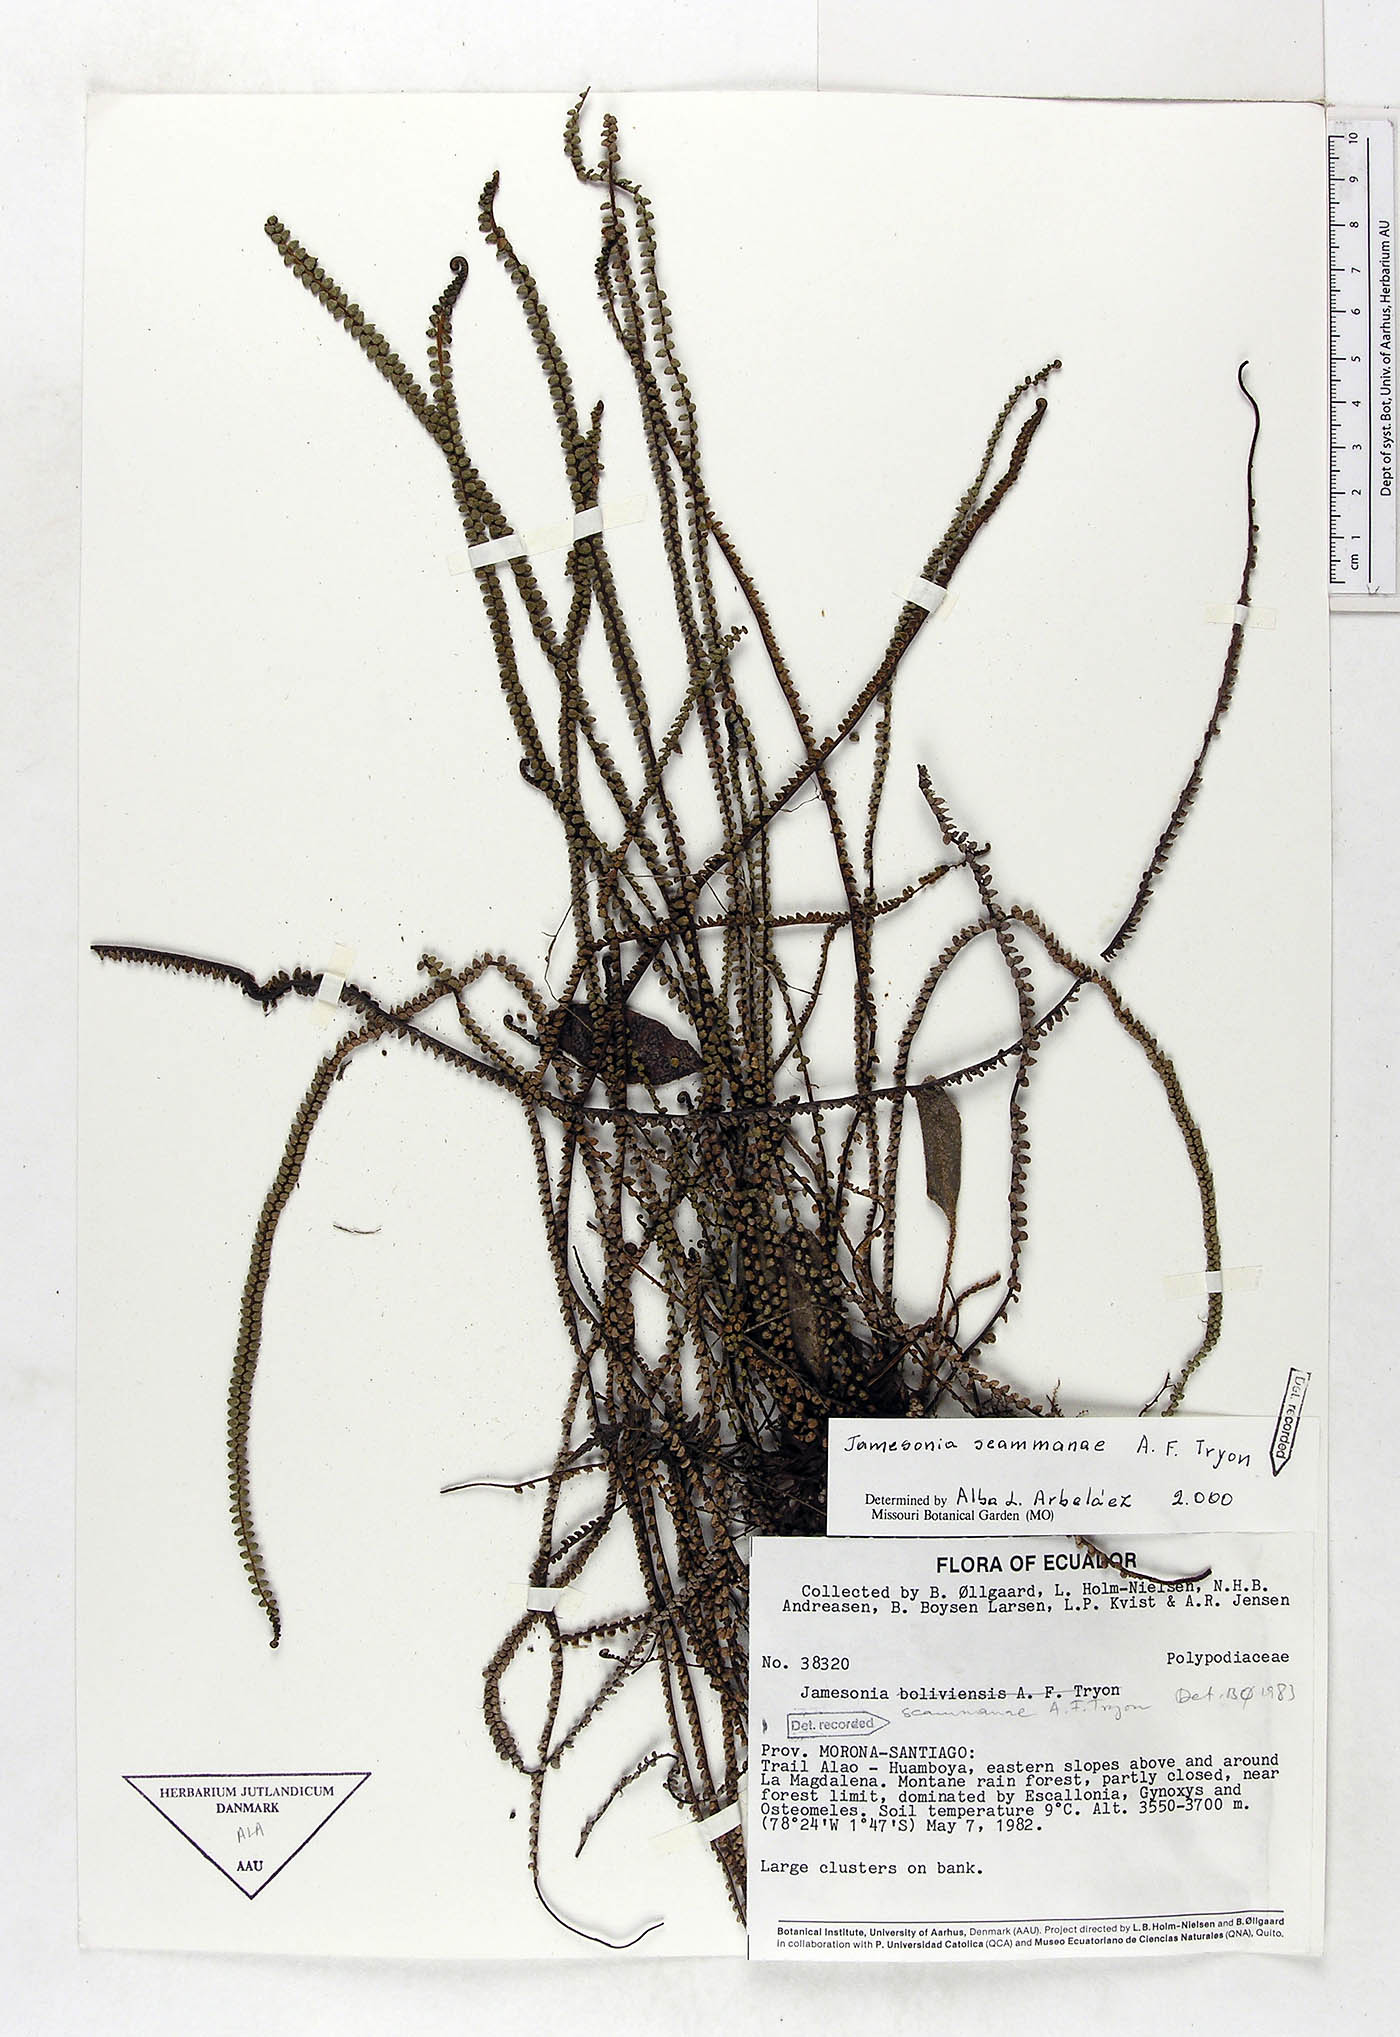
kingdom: Plantae
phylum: Tracheophyta
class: Polypodiopsida
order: Polypodiales
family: Pteridaceae
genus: Jamesonia
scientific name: Jamesonia scammanae
